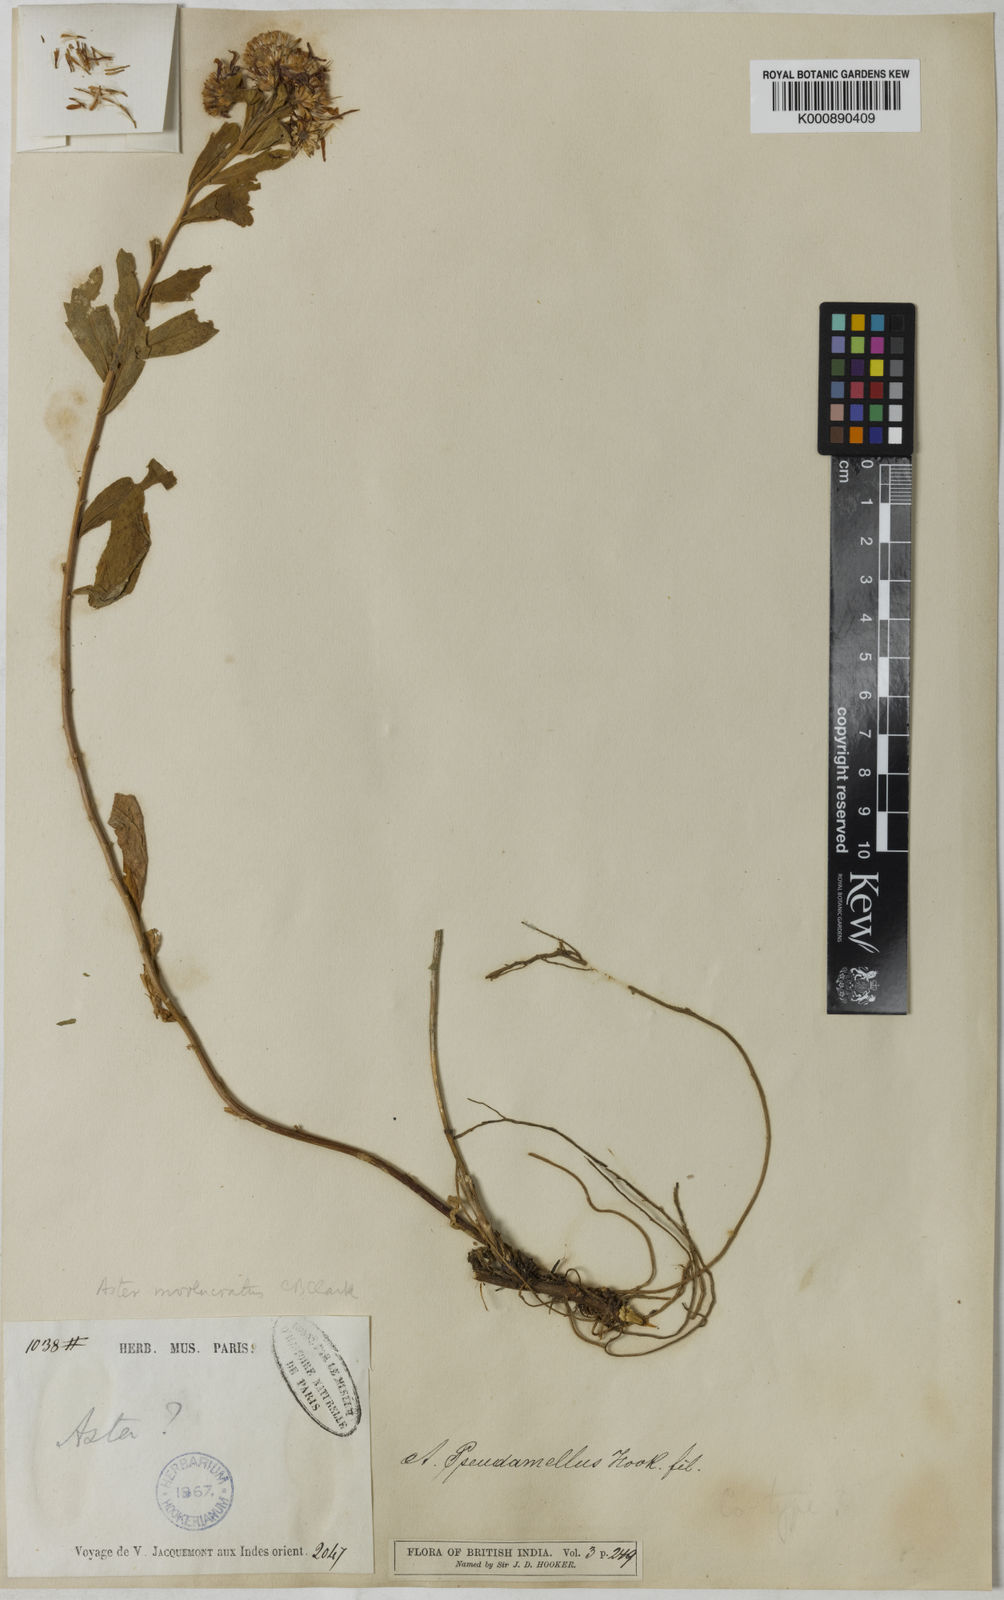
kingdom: Plantae
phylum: Tracheophyta
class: Magnoliopsida
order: Asterales
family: Asteraceae
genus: Aster
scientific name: Aster indamellus
